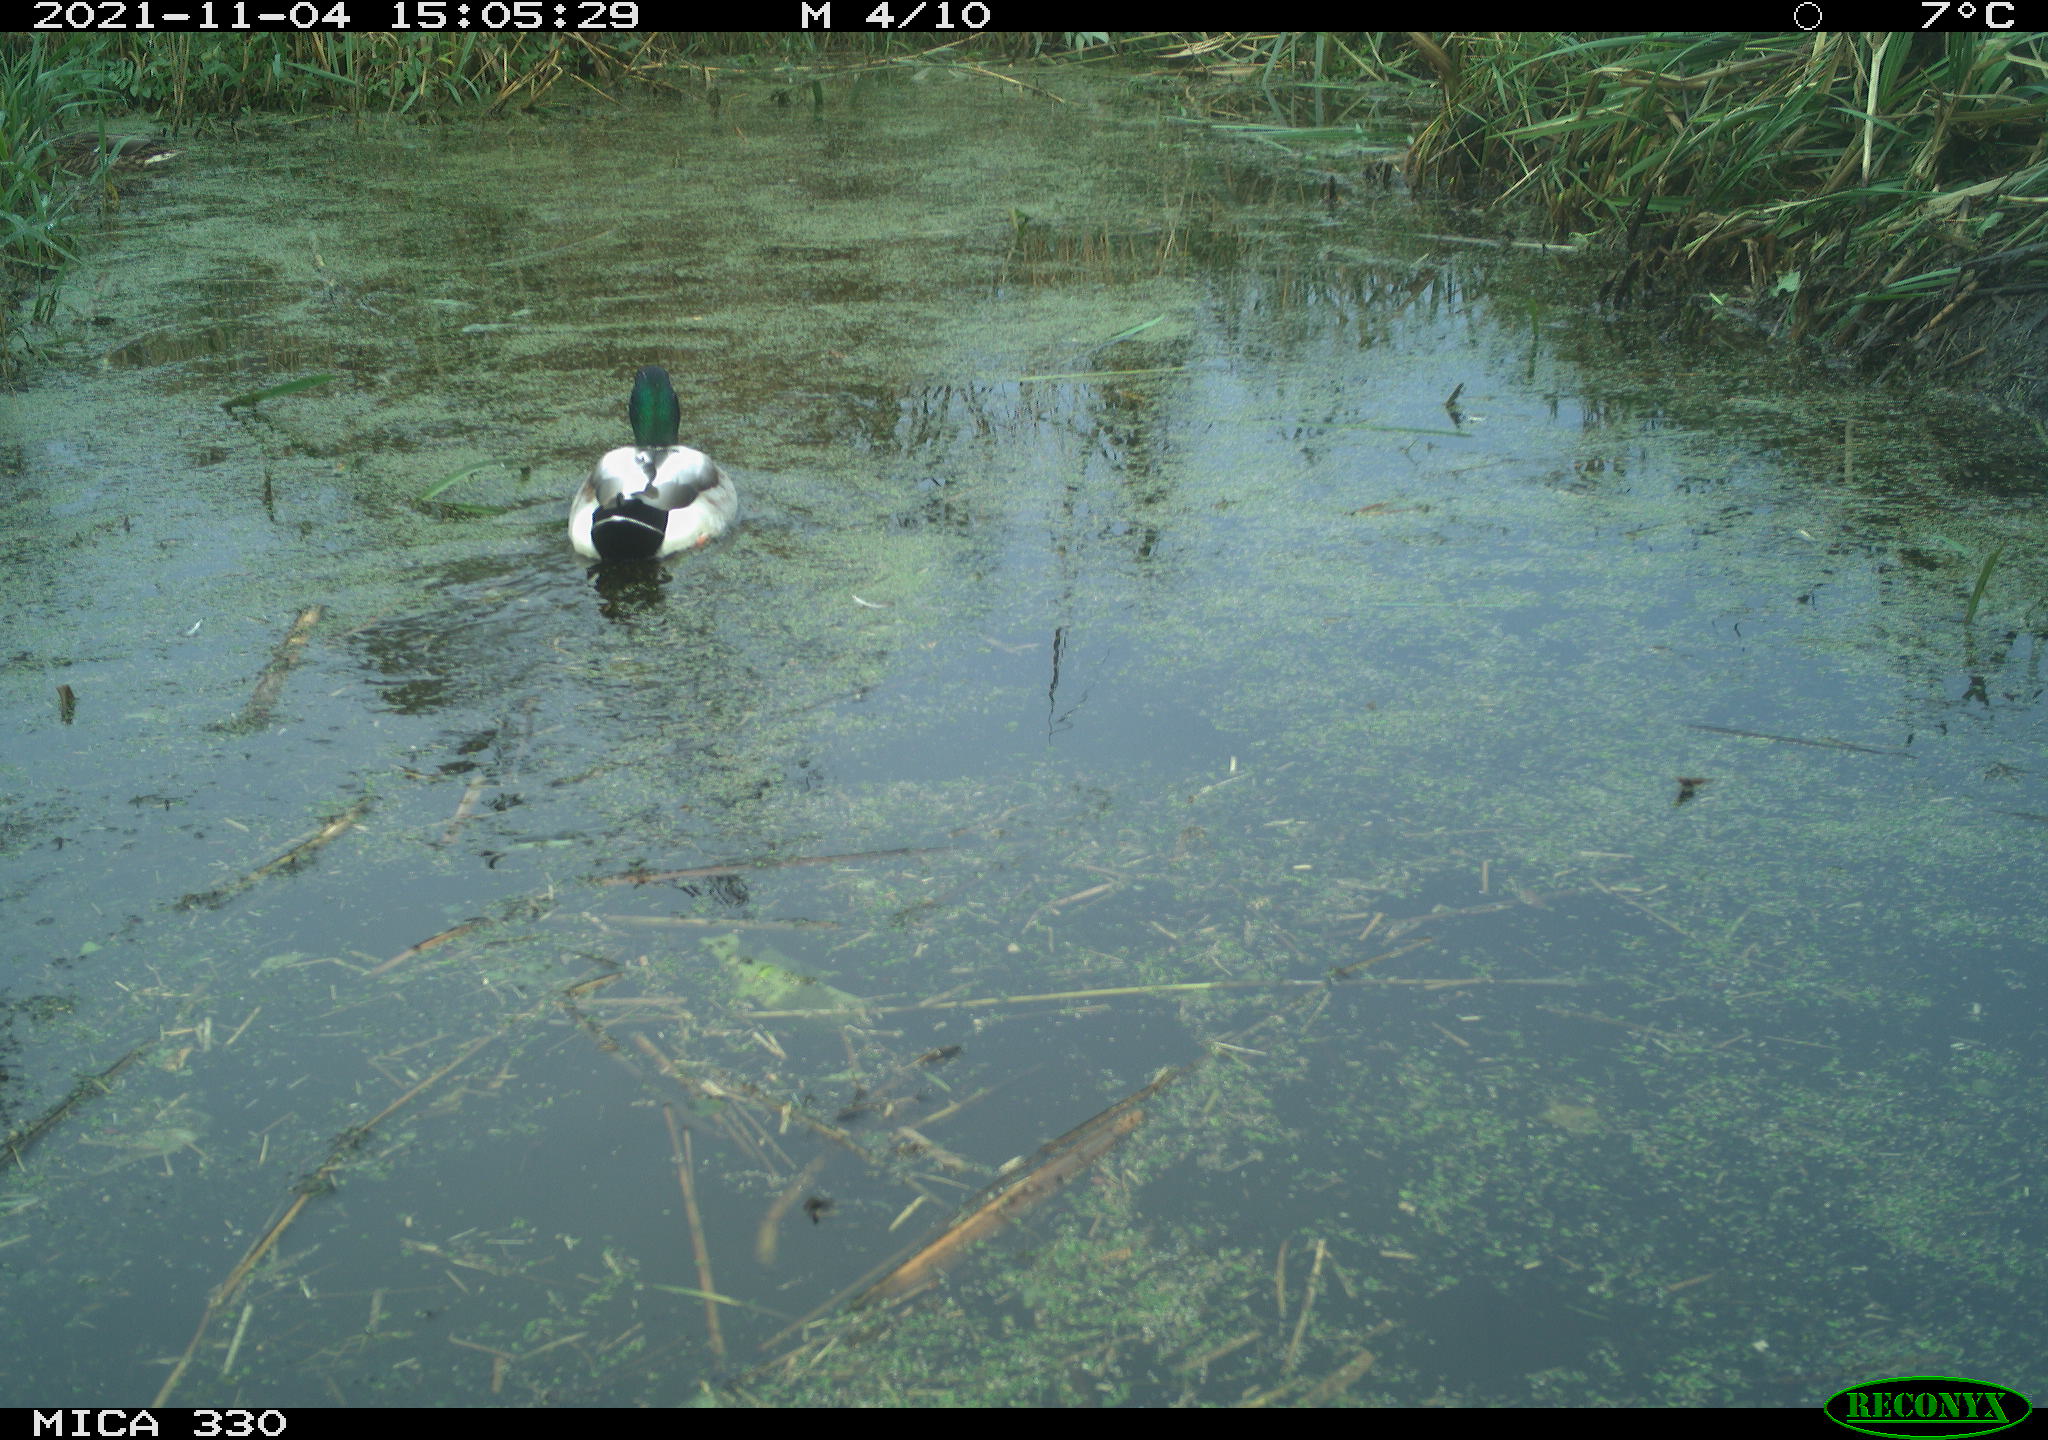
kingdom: Animalia
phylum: Chordata
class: Aves
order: Anseriformes
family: Anatidae
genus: Anas
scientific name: Anas platyrhynchos
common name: Mallard
